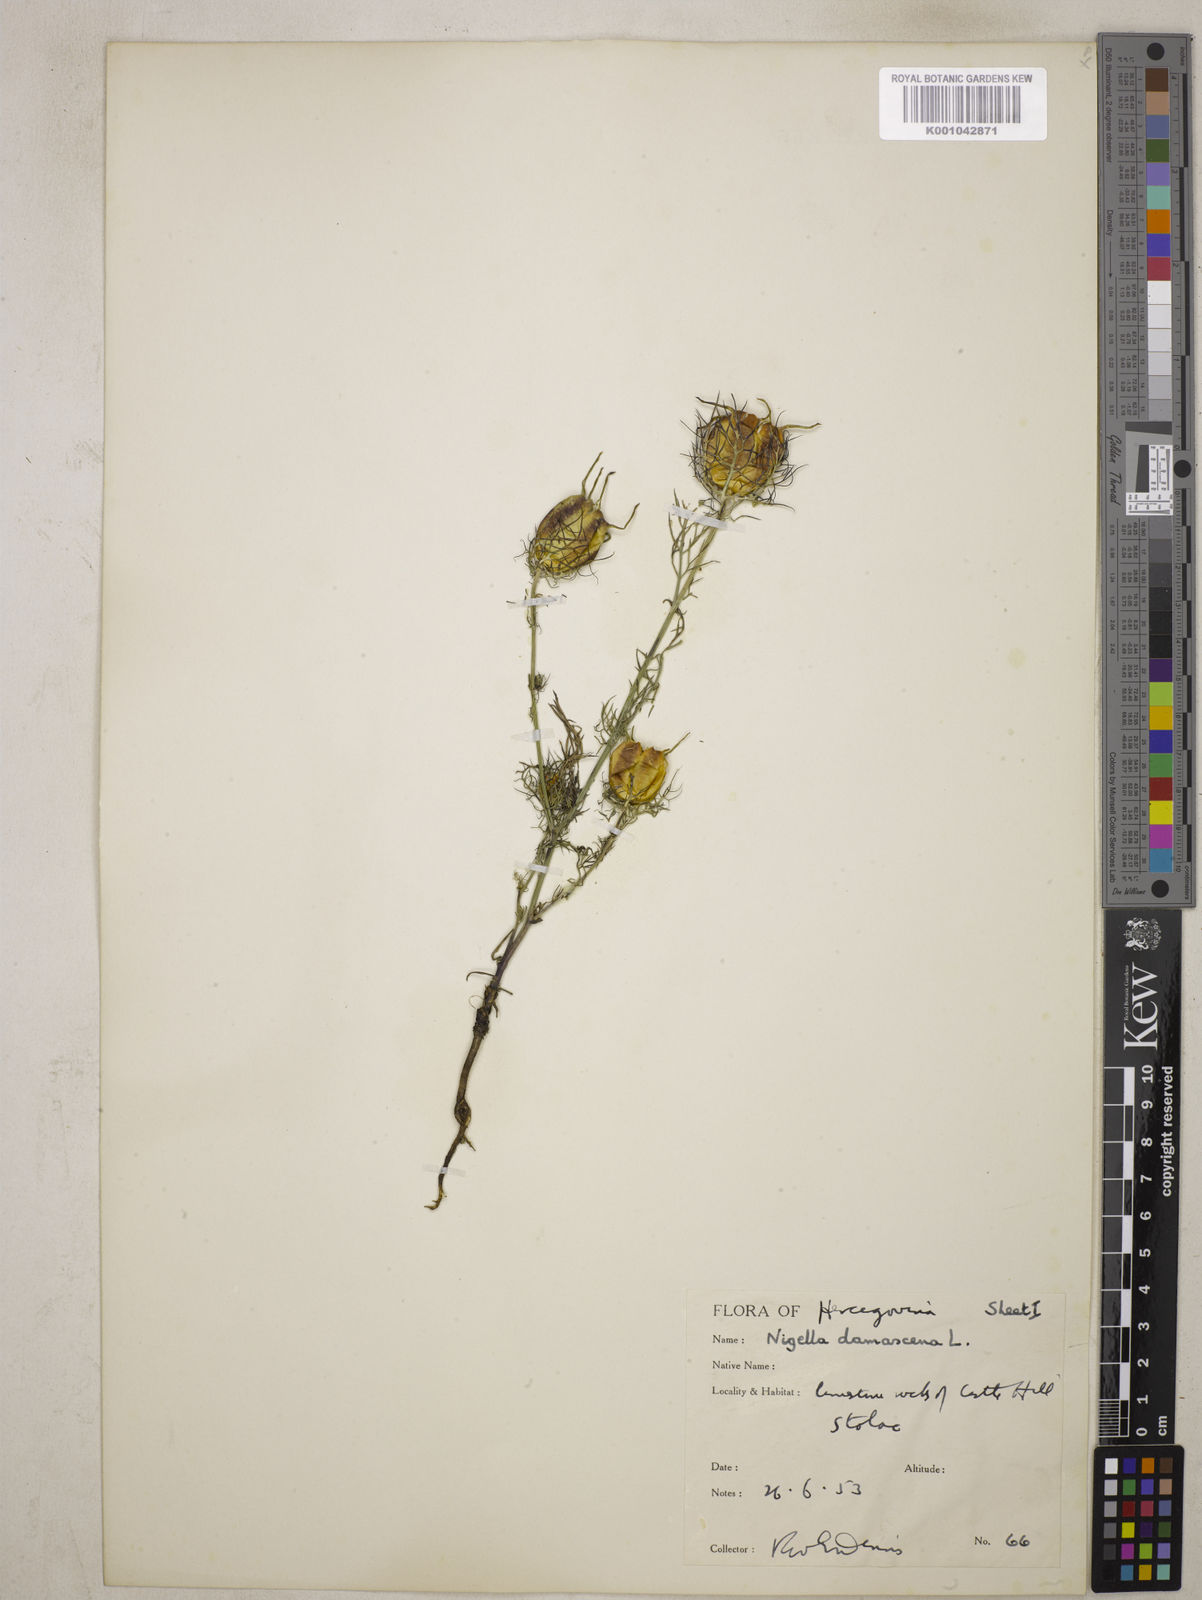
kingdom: Plantae
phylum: Tracheophyta
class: Magnoliopsida
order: Ranunculales
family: Ranunculaceae
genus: Nigella
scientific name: Nigella damascena
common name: Love-in-a-mist
